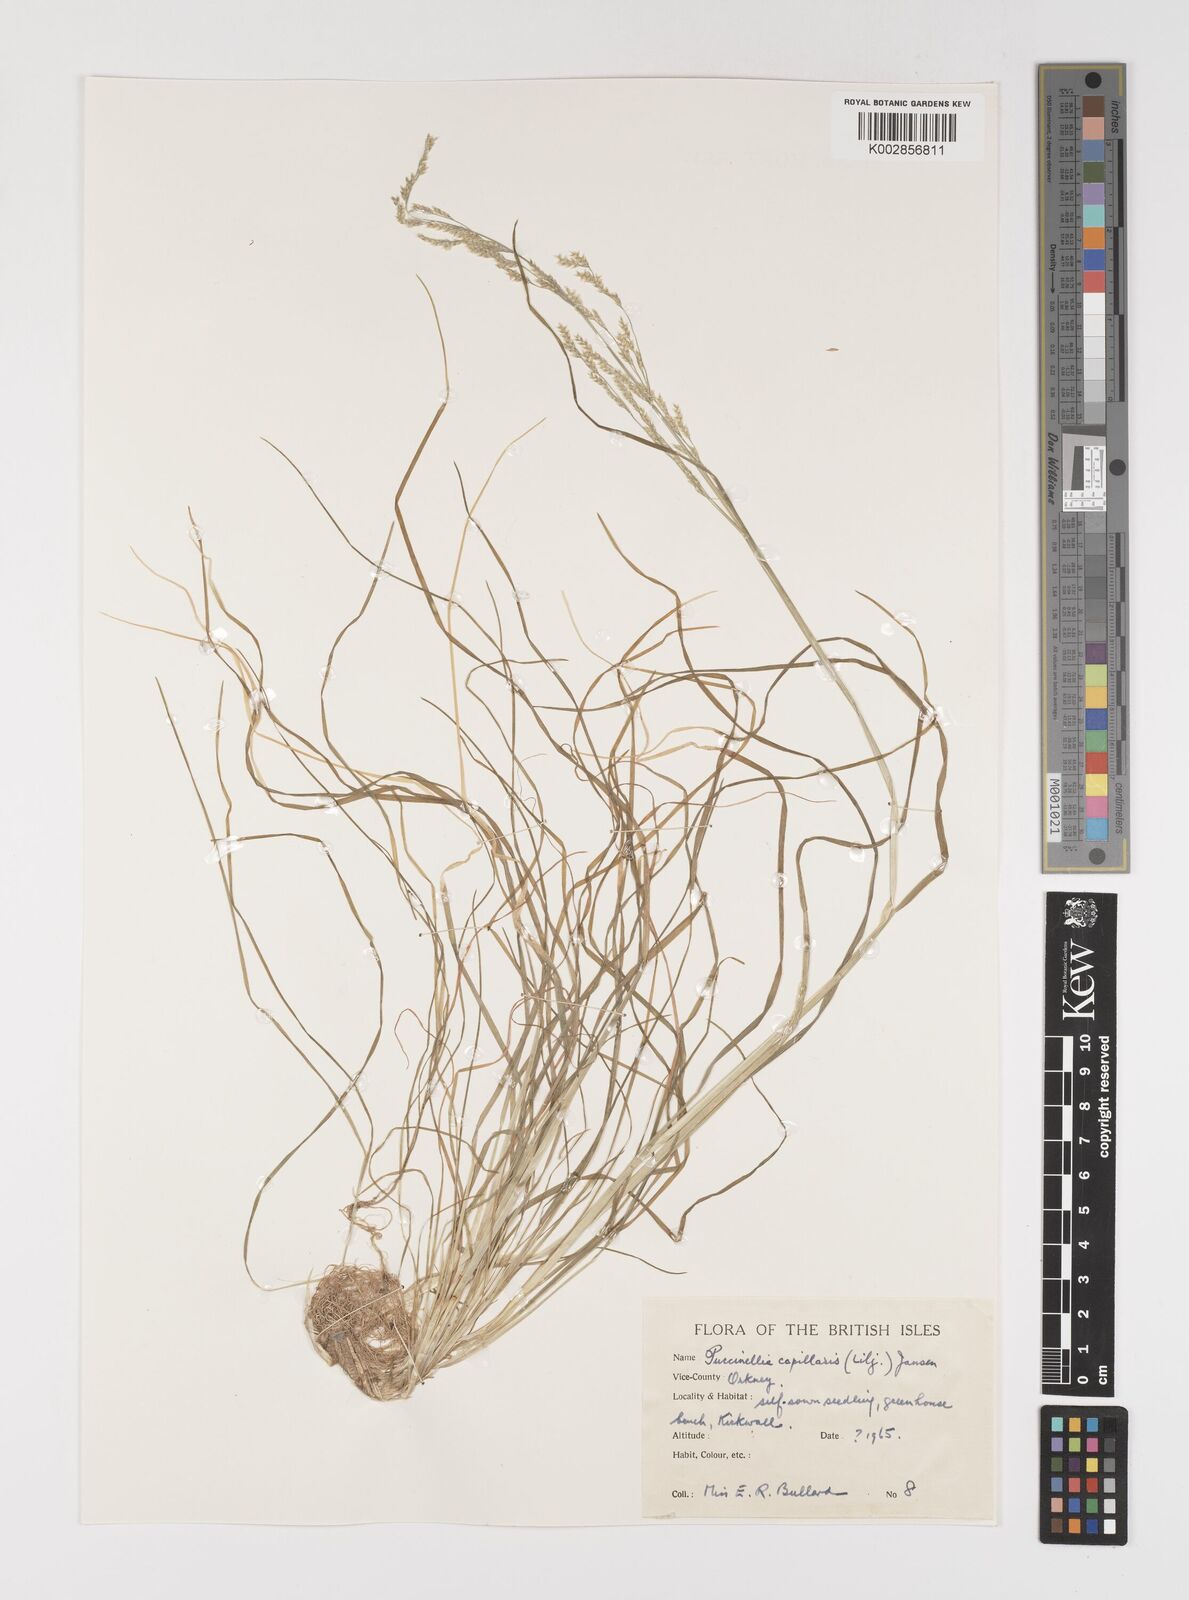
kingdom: Plantae
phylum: Tracheophyta
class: Liliopsida
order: Poales
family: Poaceae
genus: Puccinellia
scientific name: Puccinellia distans
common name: Weeping alkaligrass
